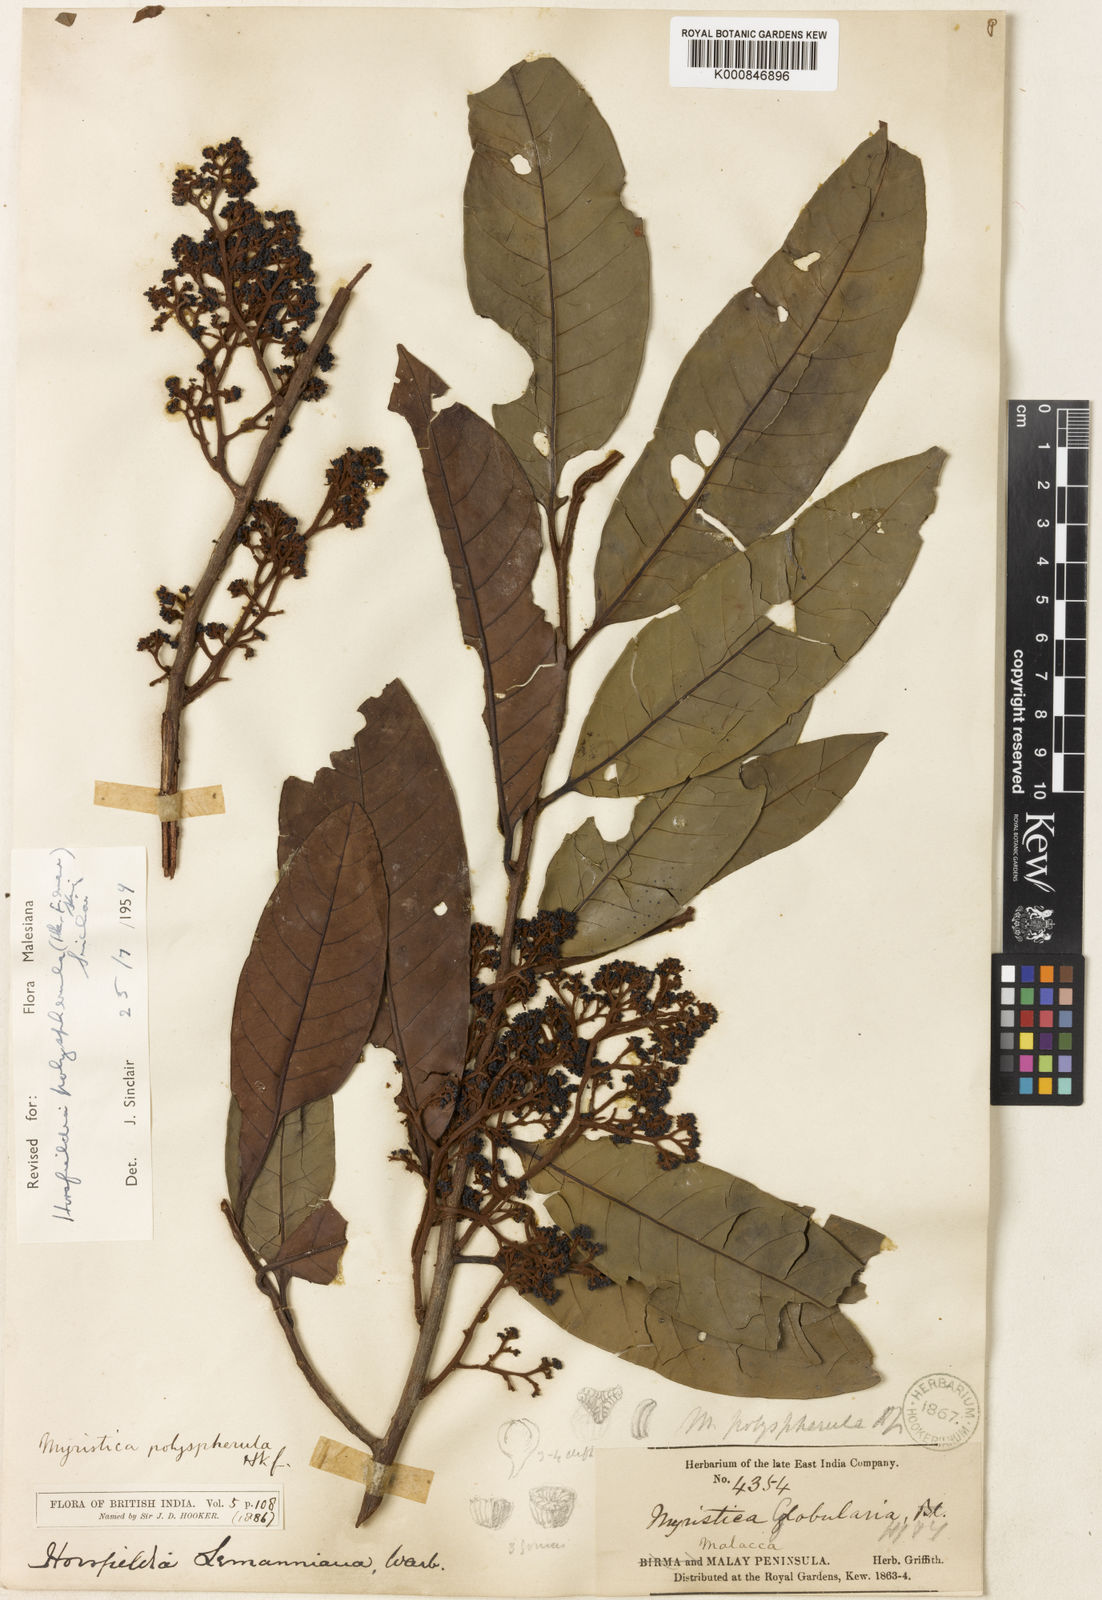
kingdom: Plantae
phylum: Tracheophyta
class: Magnoliopsida
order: Magnoliales
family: Myristicaceae
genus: Horsfieldia
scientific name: Horsfieldia polyspherula
